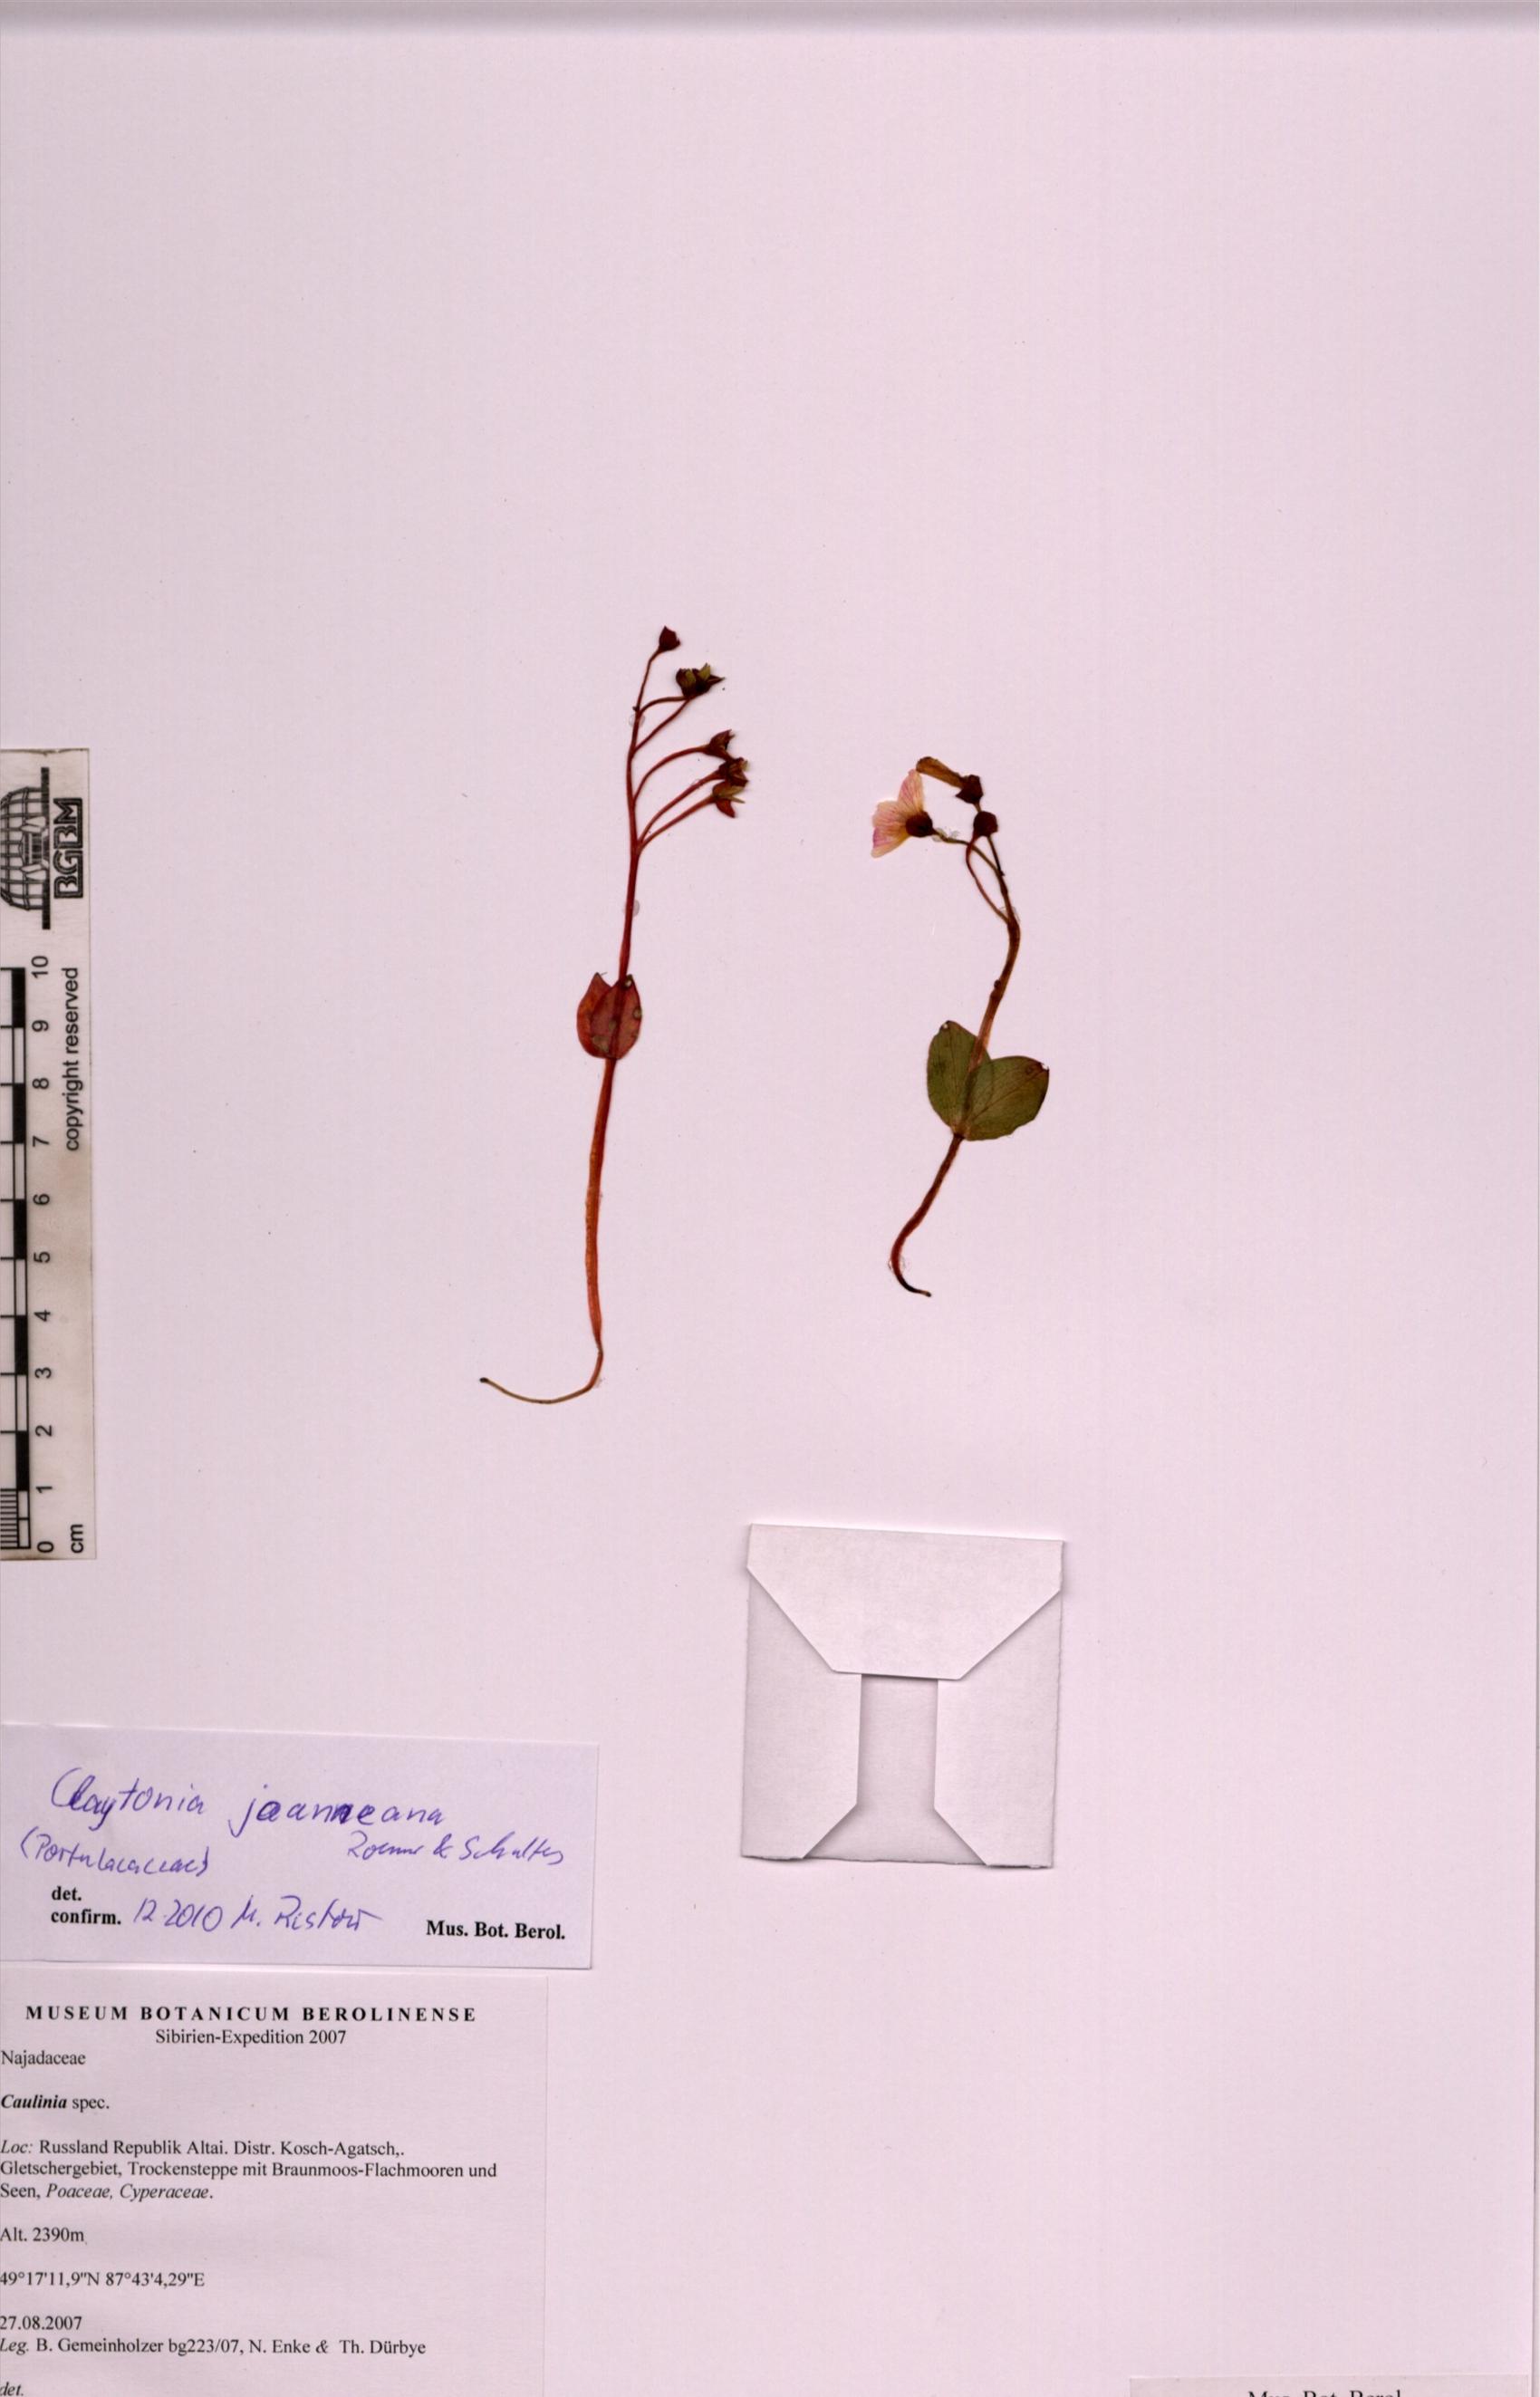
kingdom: Plantae
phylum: Tracheophyta
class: Magnoliopsida
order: Caryophyllales
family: Montiaceae
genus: Claytonia
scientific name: Claytonia joanneana
